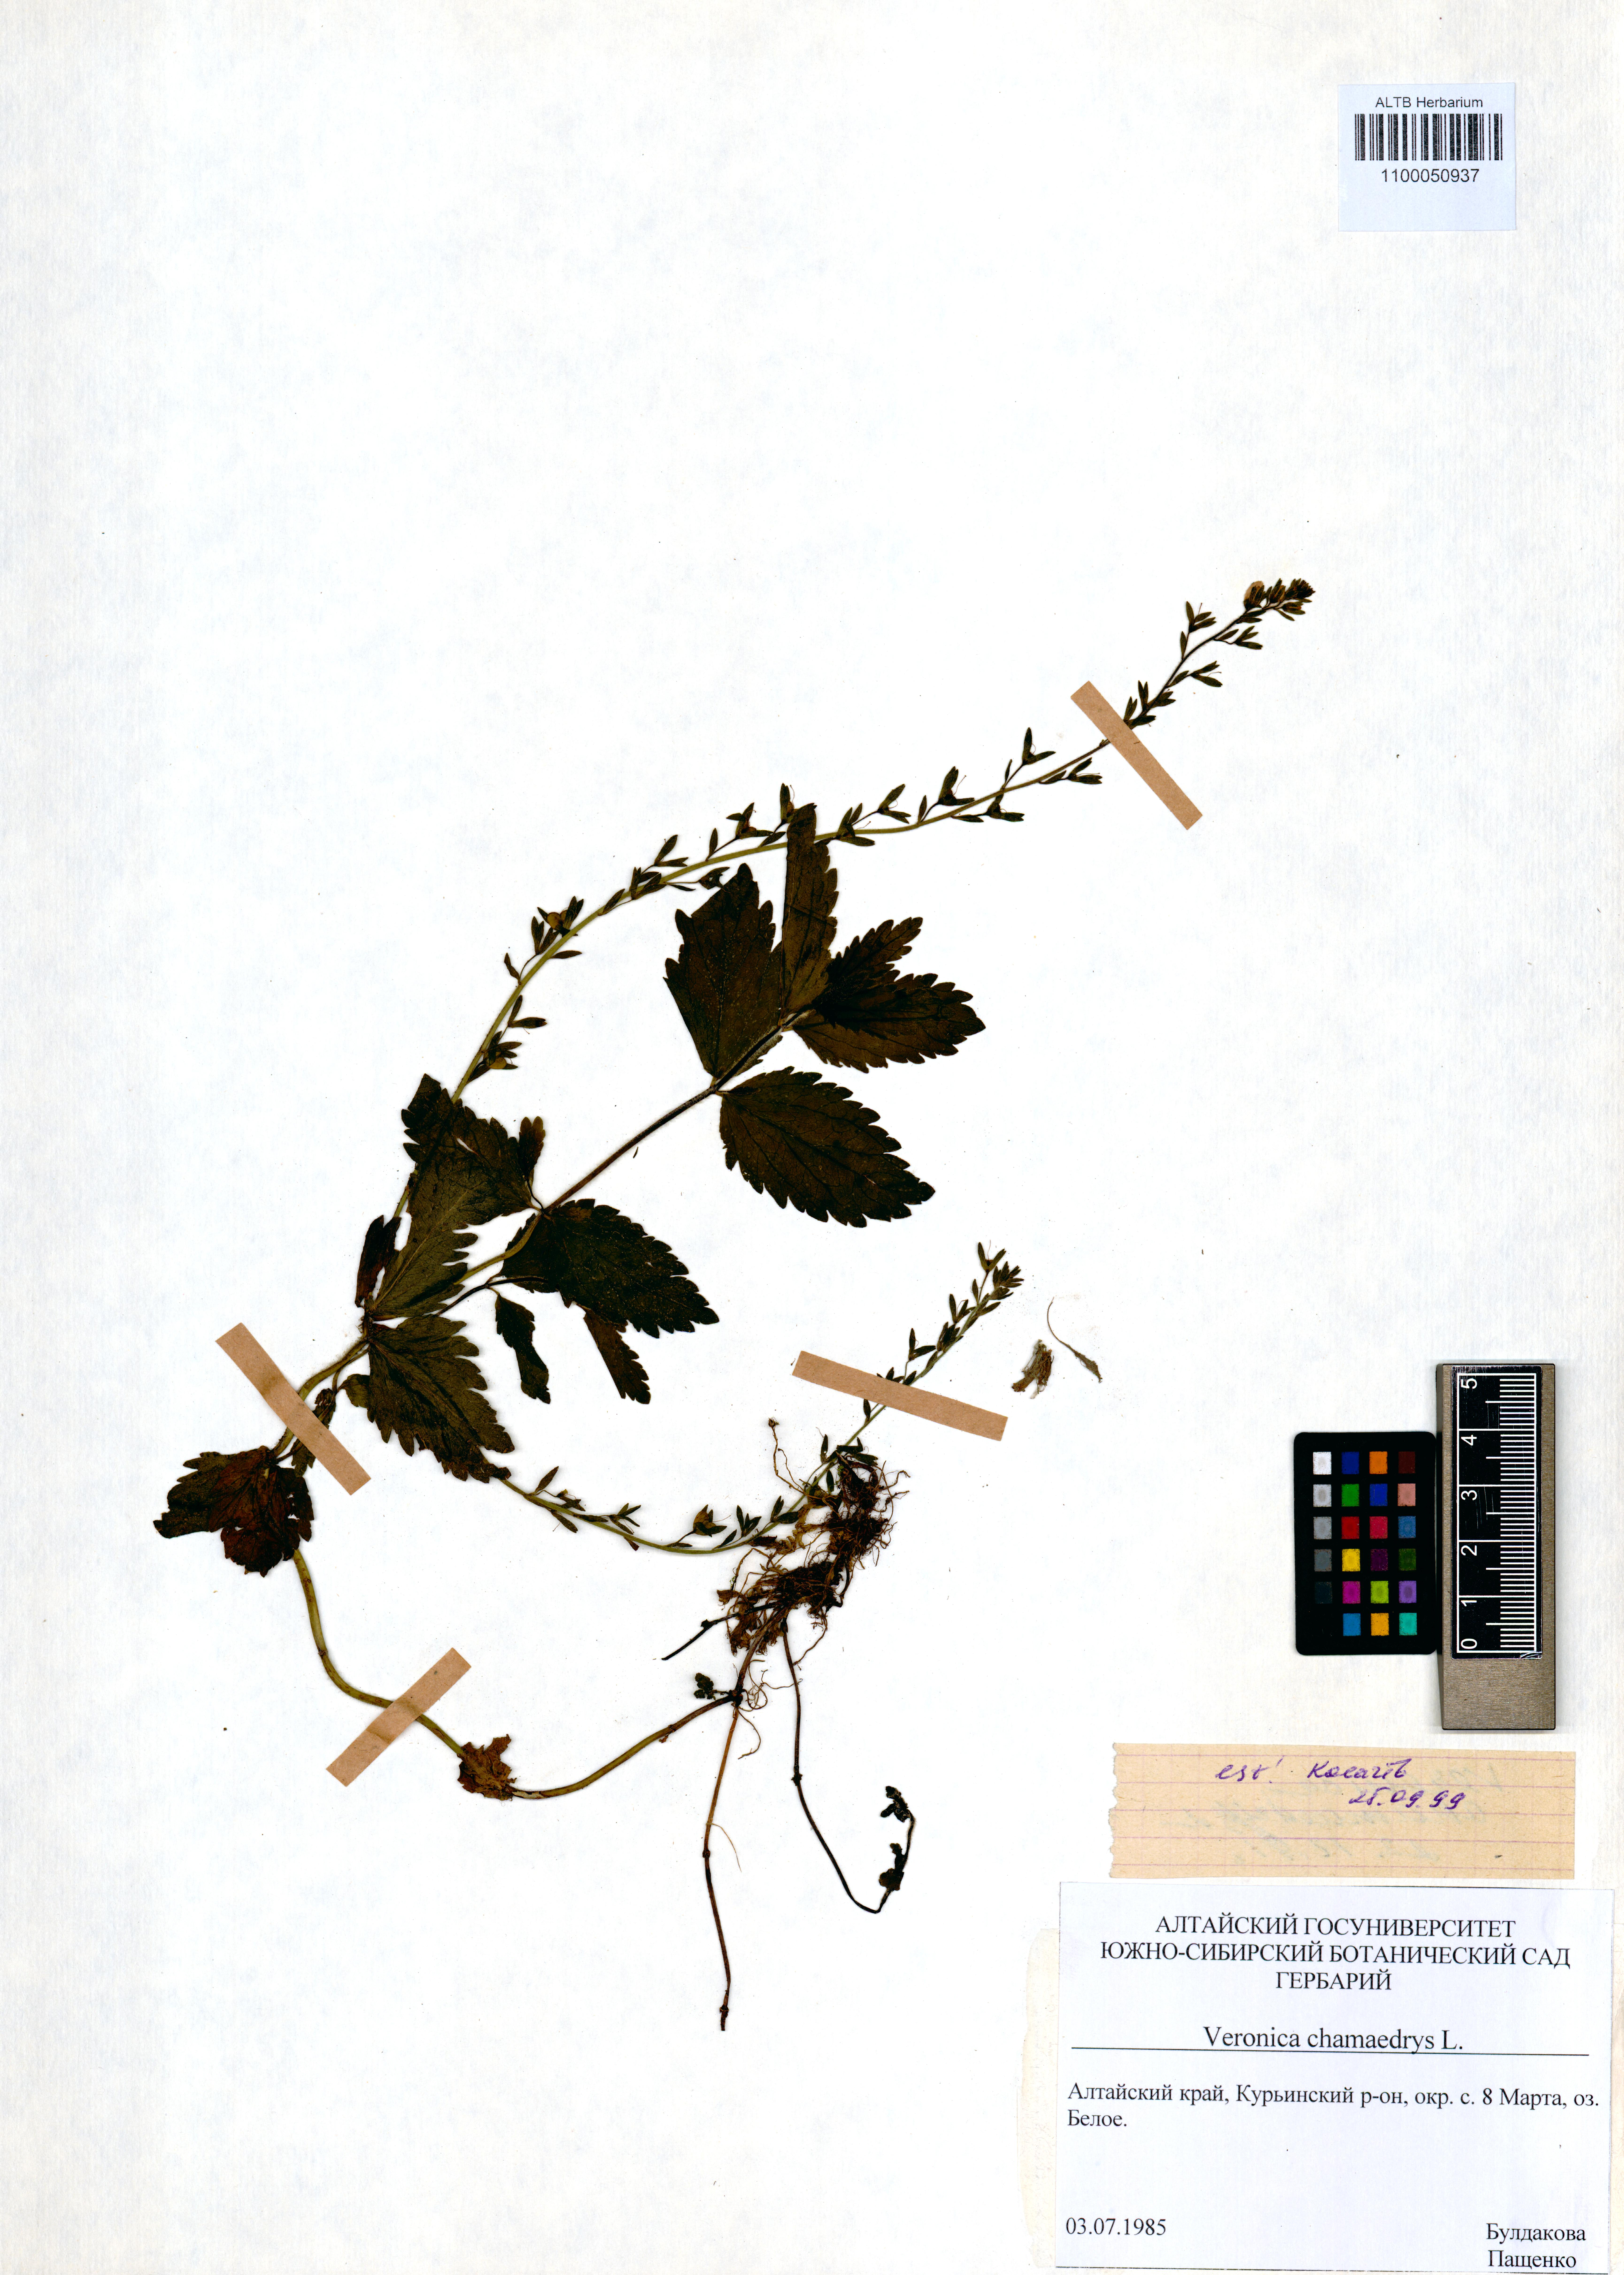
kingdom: Plantae
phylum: Tracheophyta
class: Magnoliopsida
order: Lamiales
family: Plantaginaceae
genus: Veronica
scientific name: Veronica chamaedrys
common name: Germander speedwell
